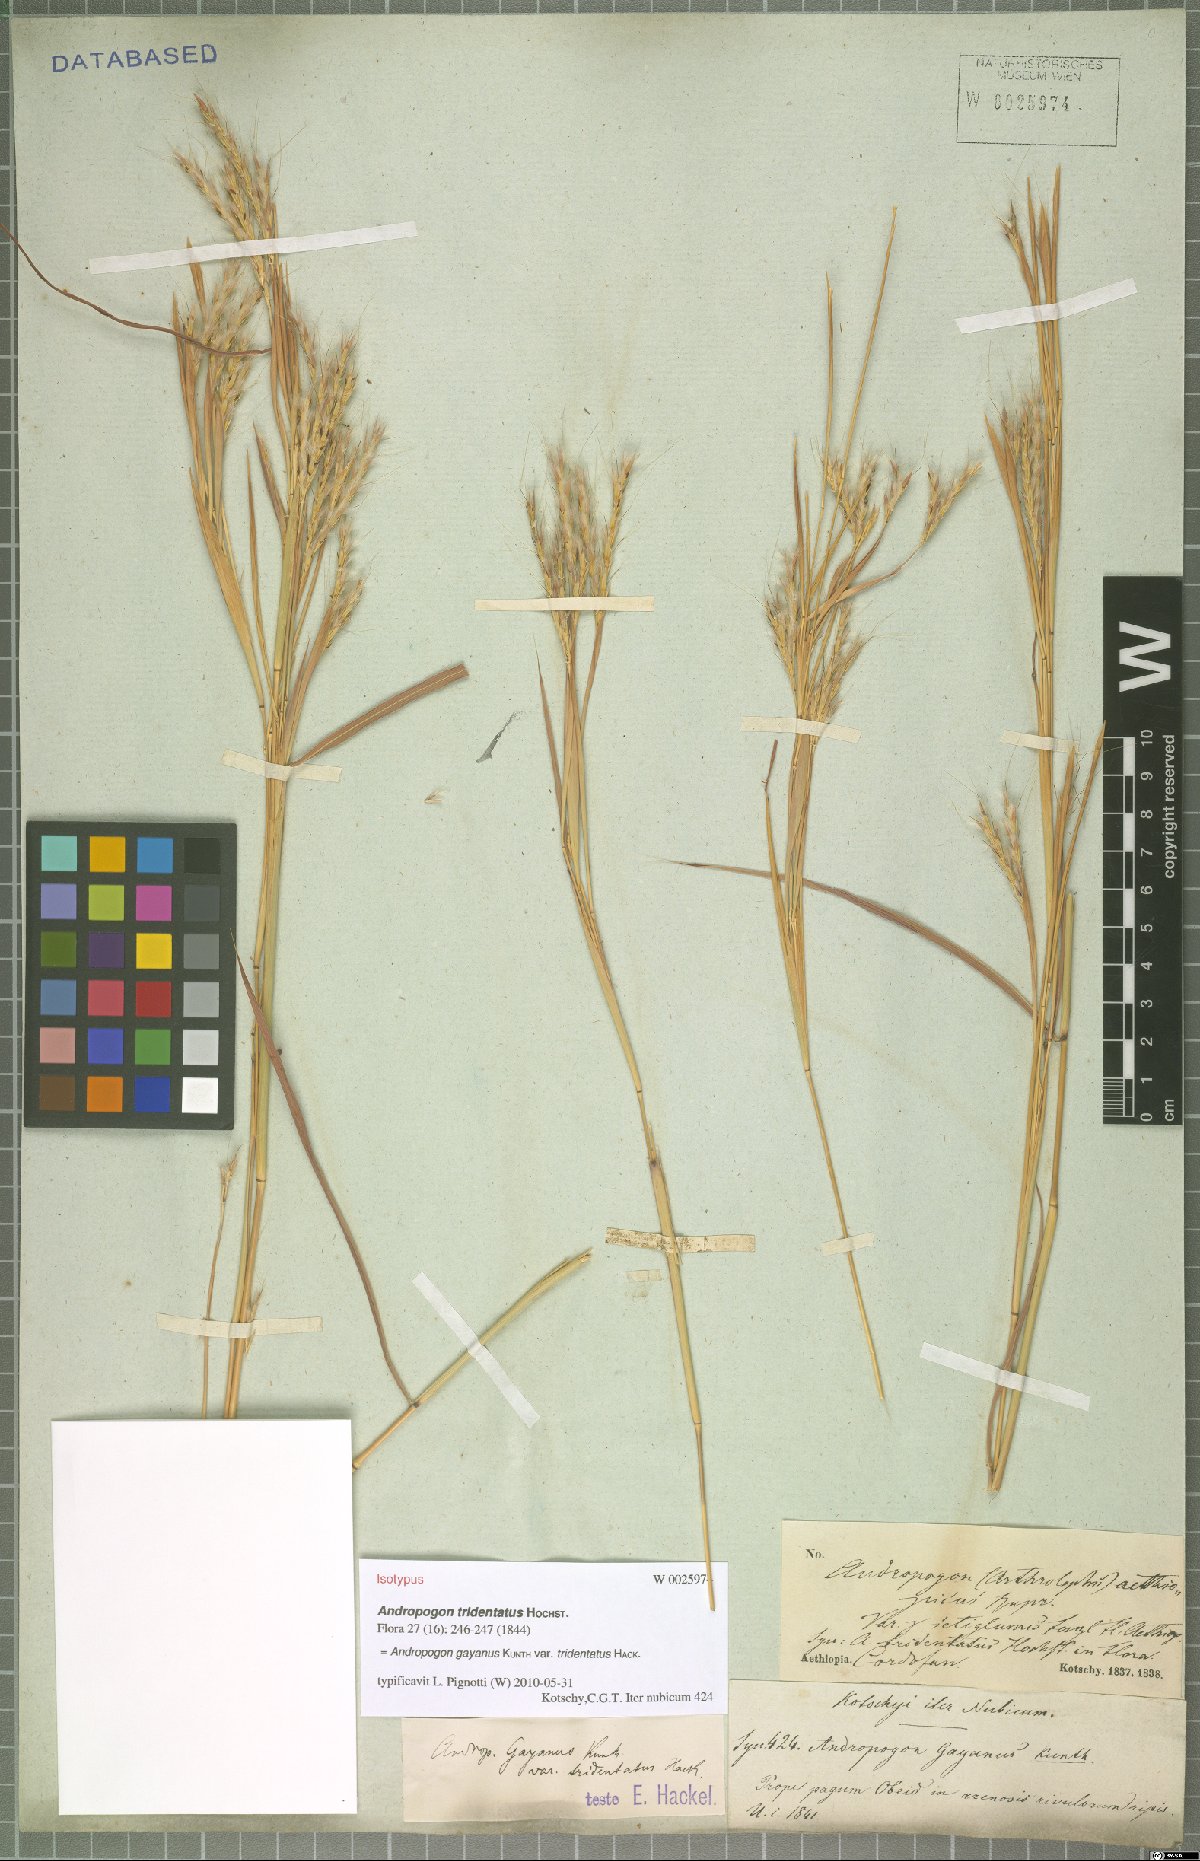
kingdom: Plantae
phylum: Tracheophyta
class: Liliopsida
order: Poales
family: Poaceae
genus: Andropogon
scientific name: Andropogon gayanus
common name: Tambuki grass
